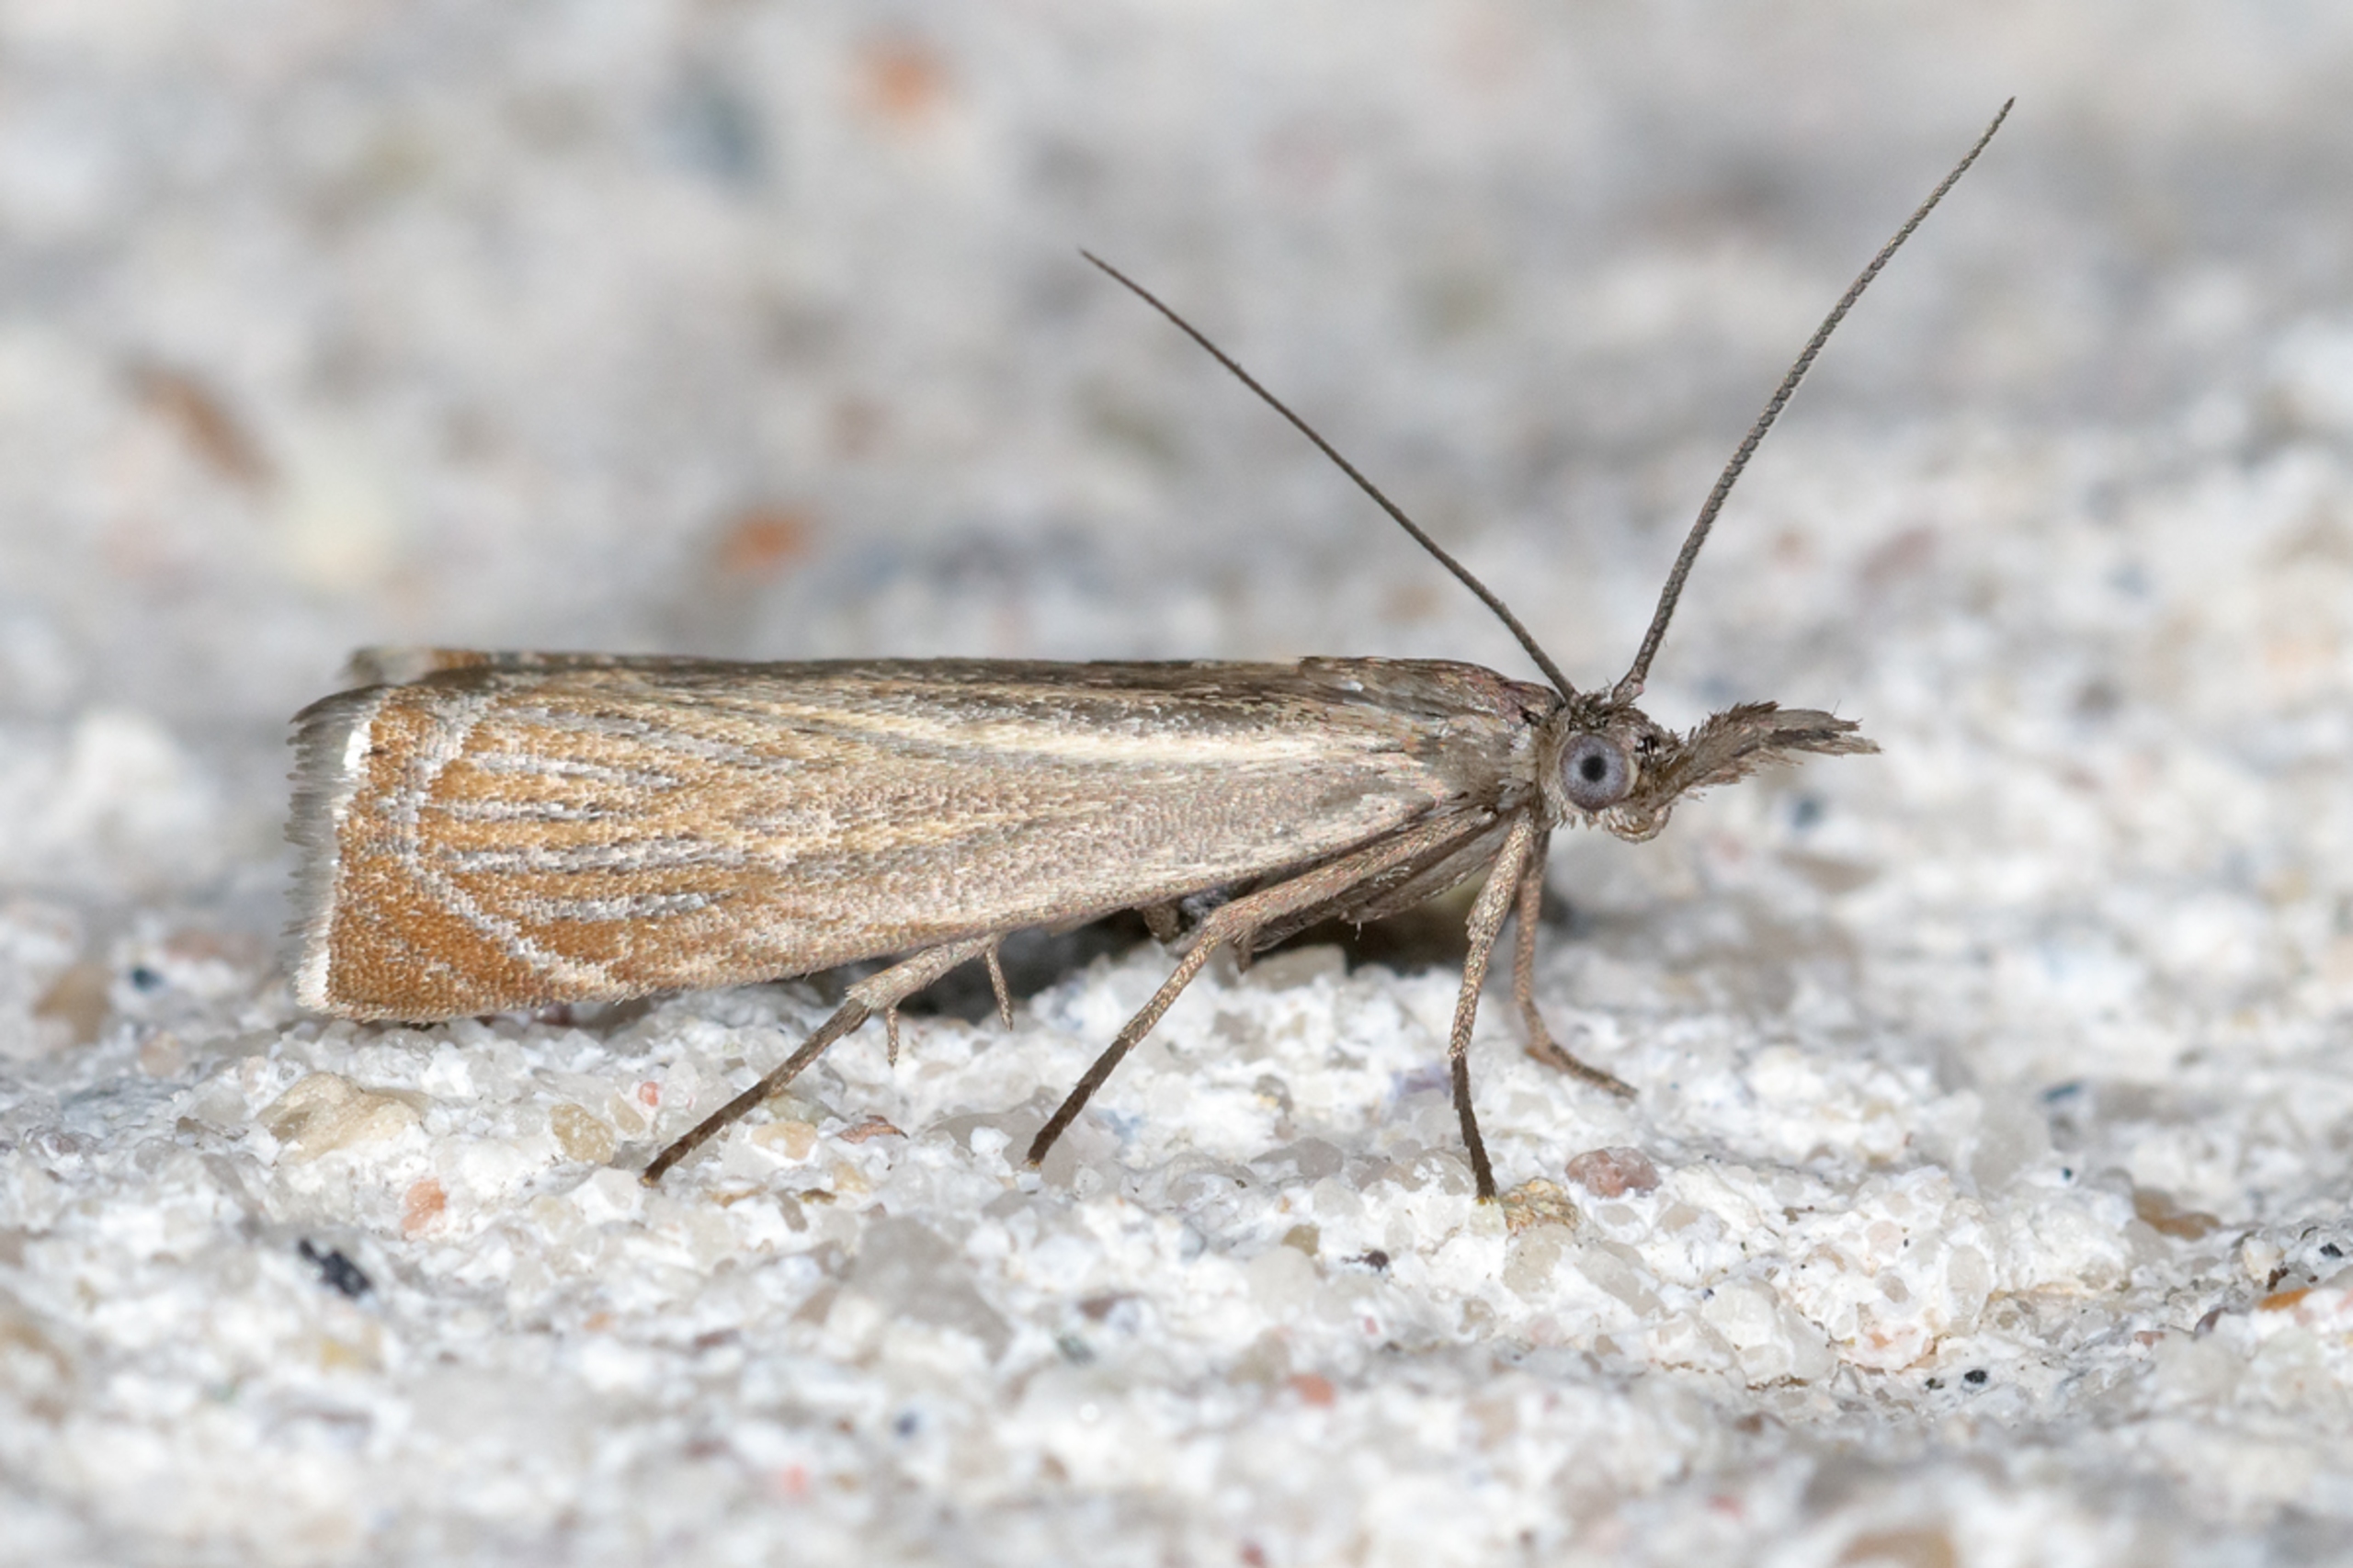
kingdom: Animalia
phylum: Arthropoda
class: Insecta
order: Lepidoptera
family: Crambidae
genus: Chrysoteuchia
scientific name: Chrysoteuchia culmella
